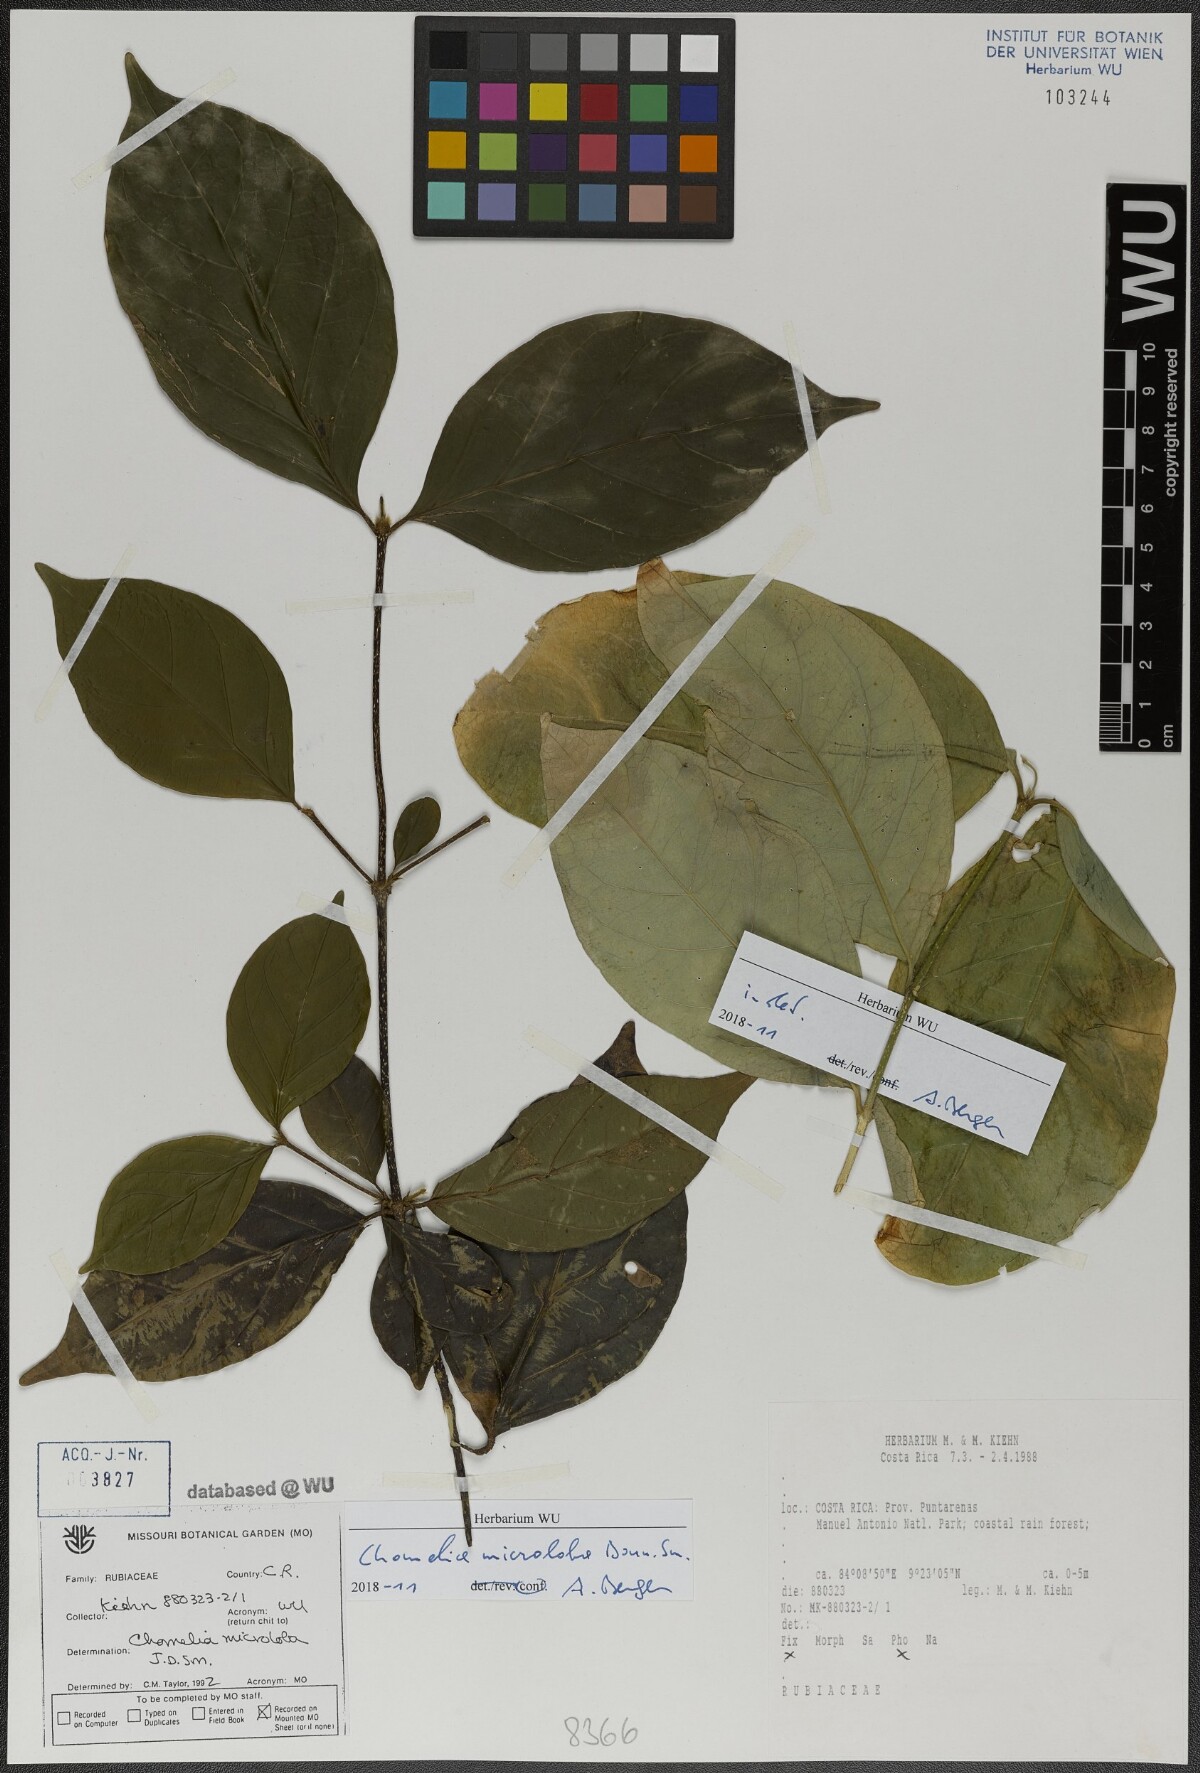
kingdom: Plantae
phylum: Tracheophyta
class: Magnoliopsida
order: Gentianales
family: Rubiaceae
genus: Chomelia
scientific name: Chomelia microloba
